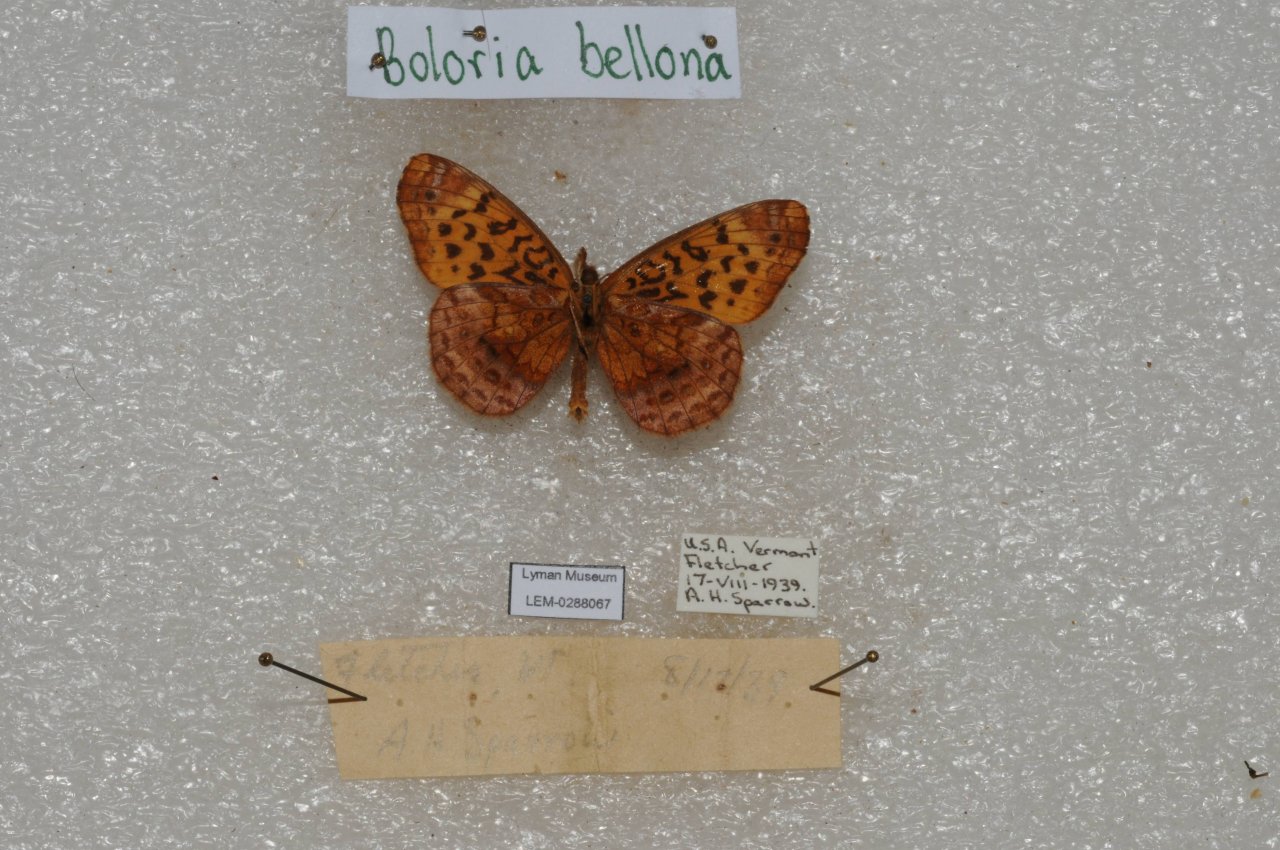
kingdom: Animalia
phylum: Arthropoda
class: Insecta
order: Lepidoptera
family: Nymphalidae
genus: Clossiana
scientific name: Clossiana toddi
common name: Meadow Fritillary
